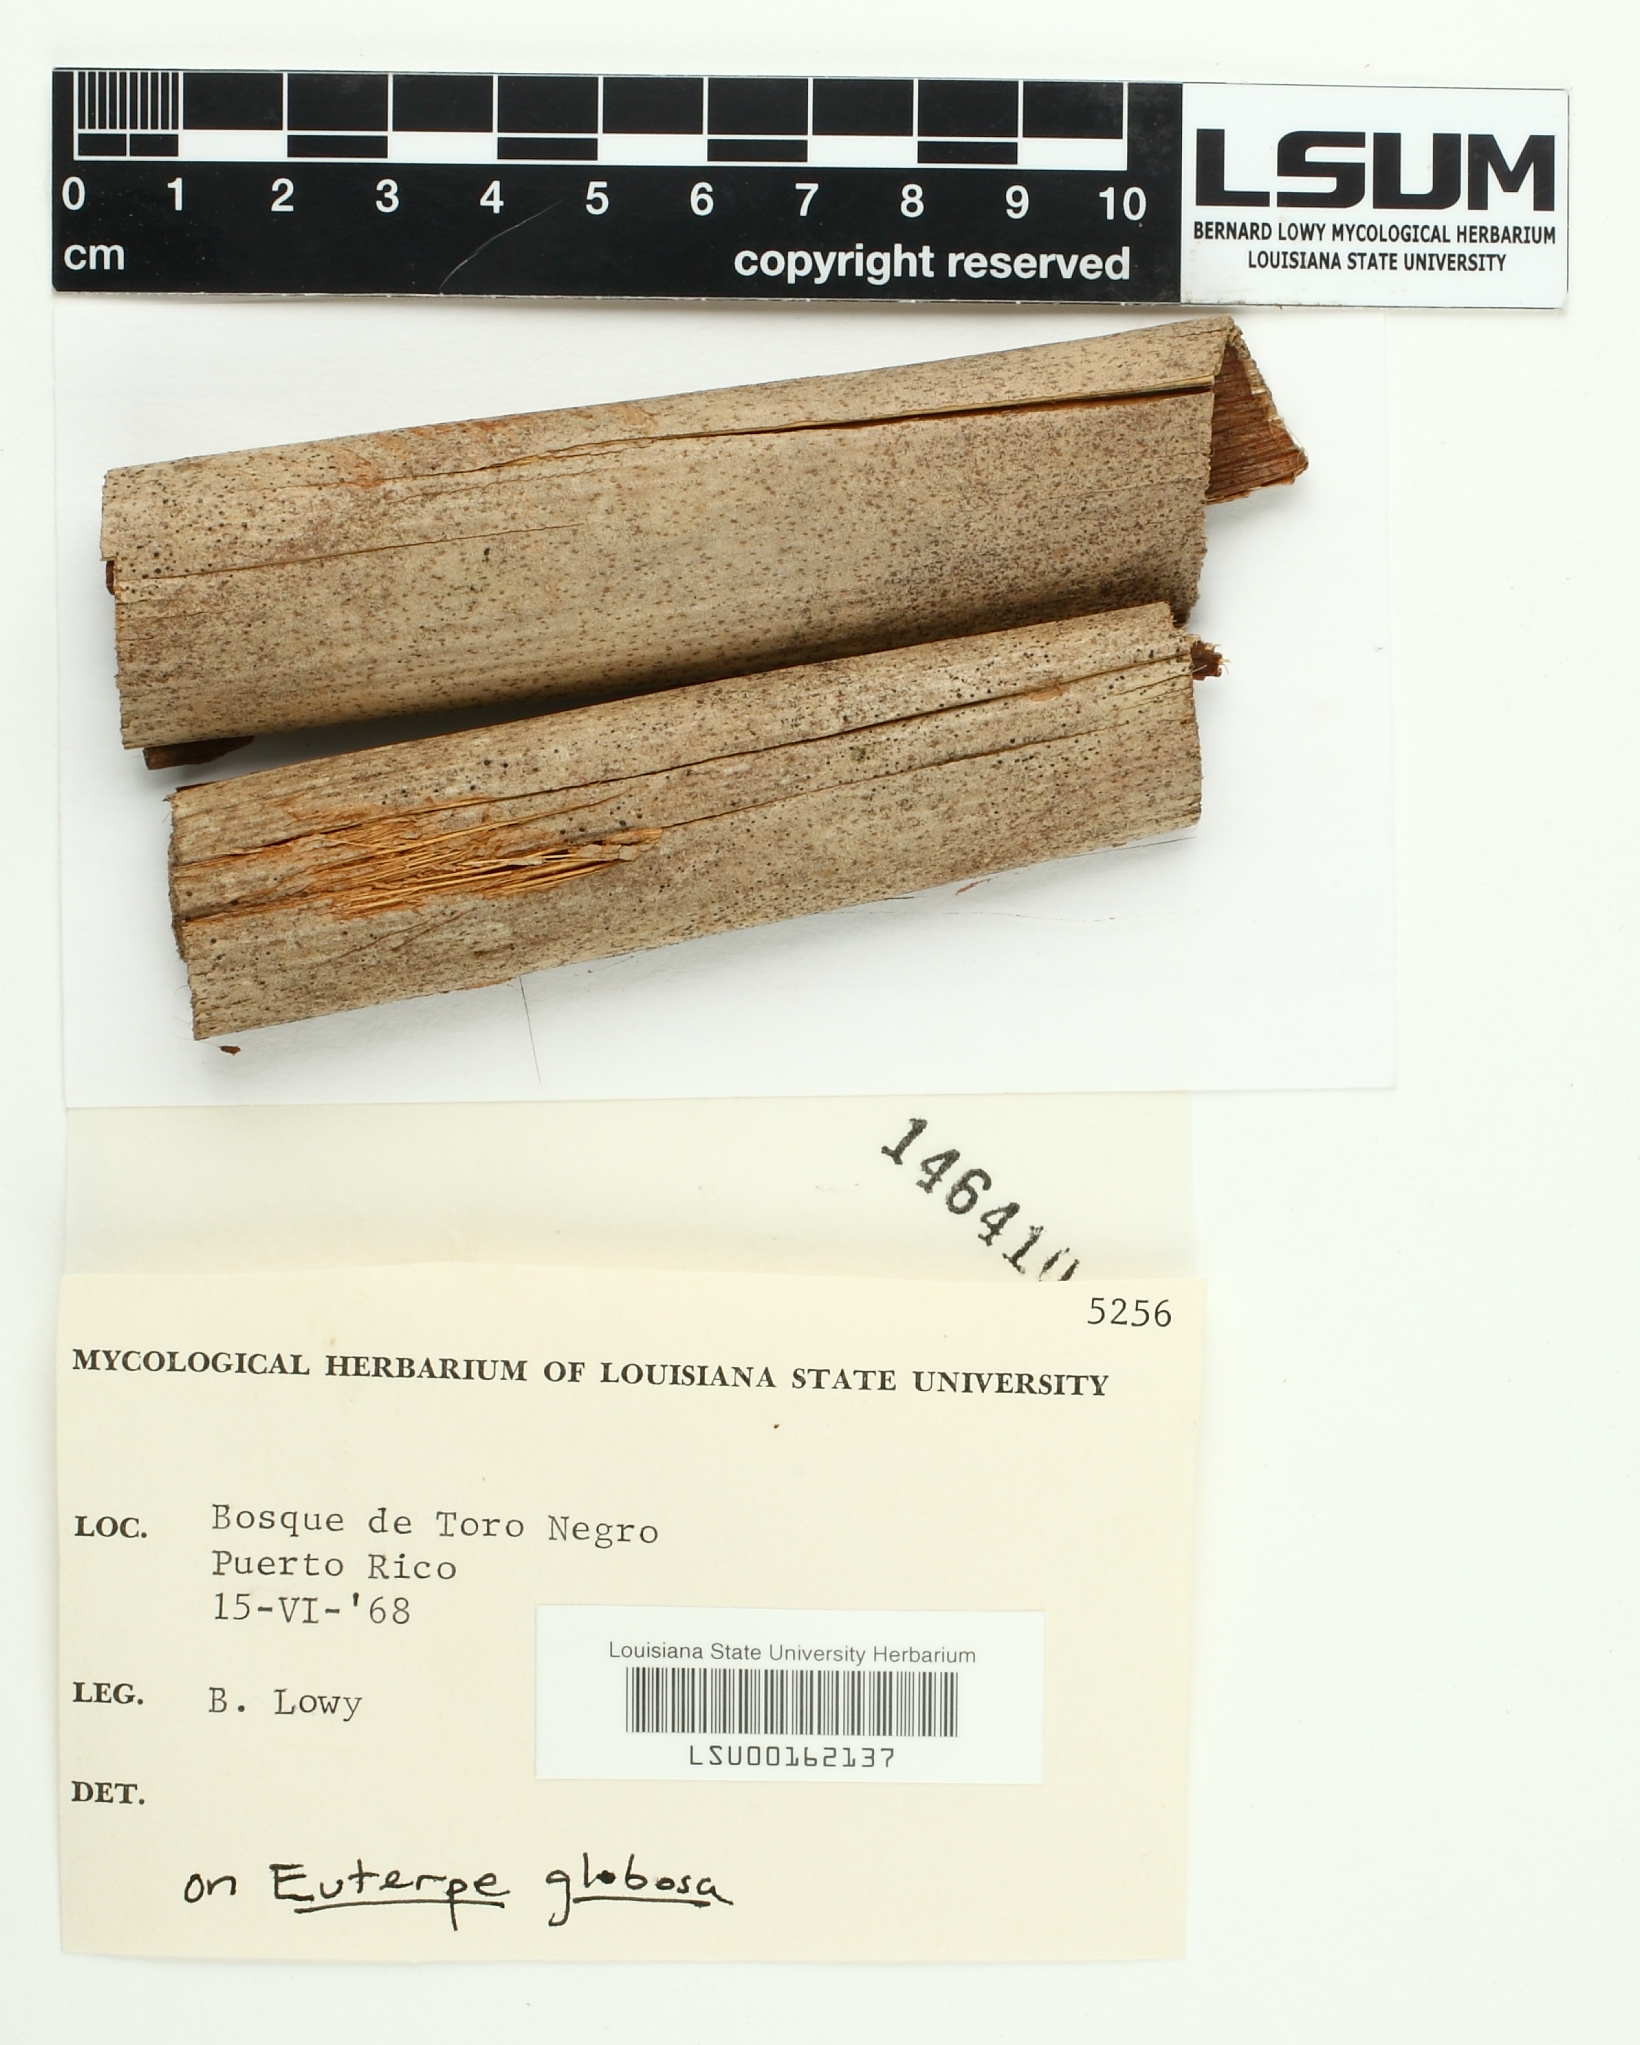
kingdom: Fungi
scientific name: Fungi
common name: Fungi
